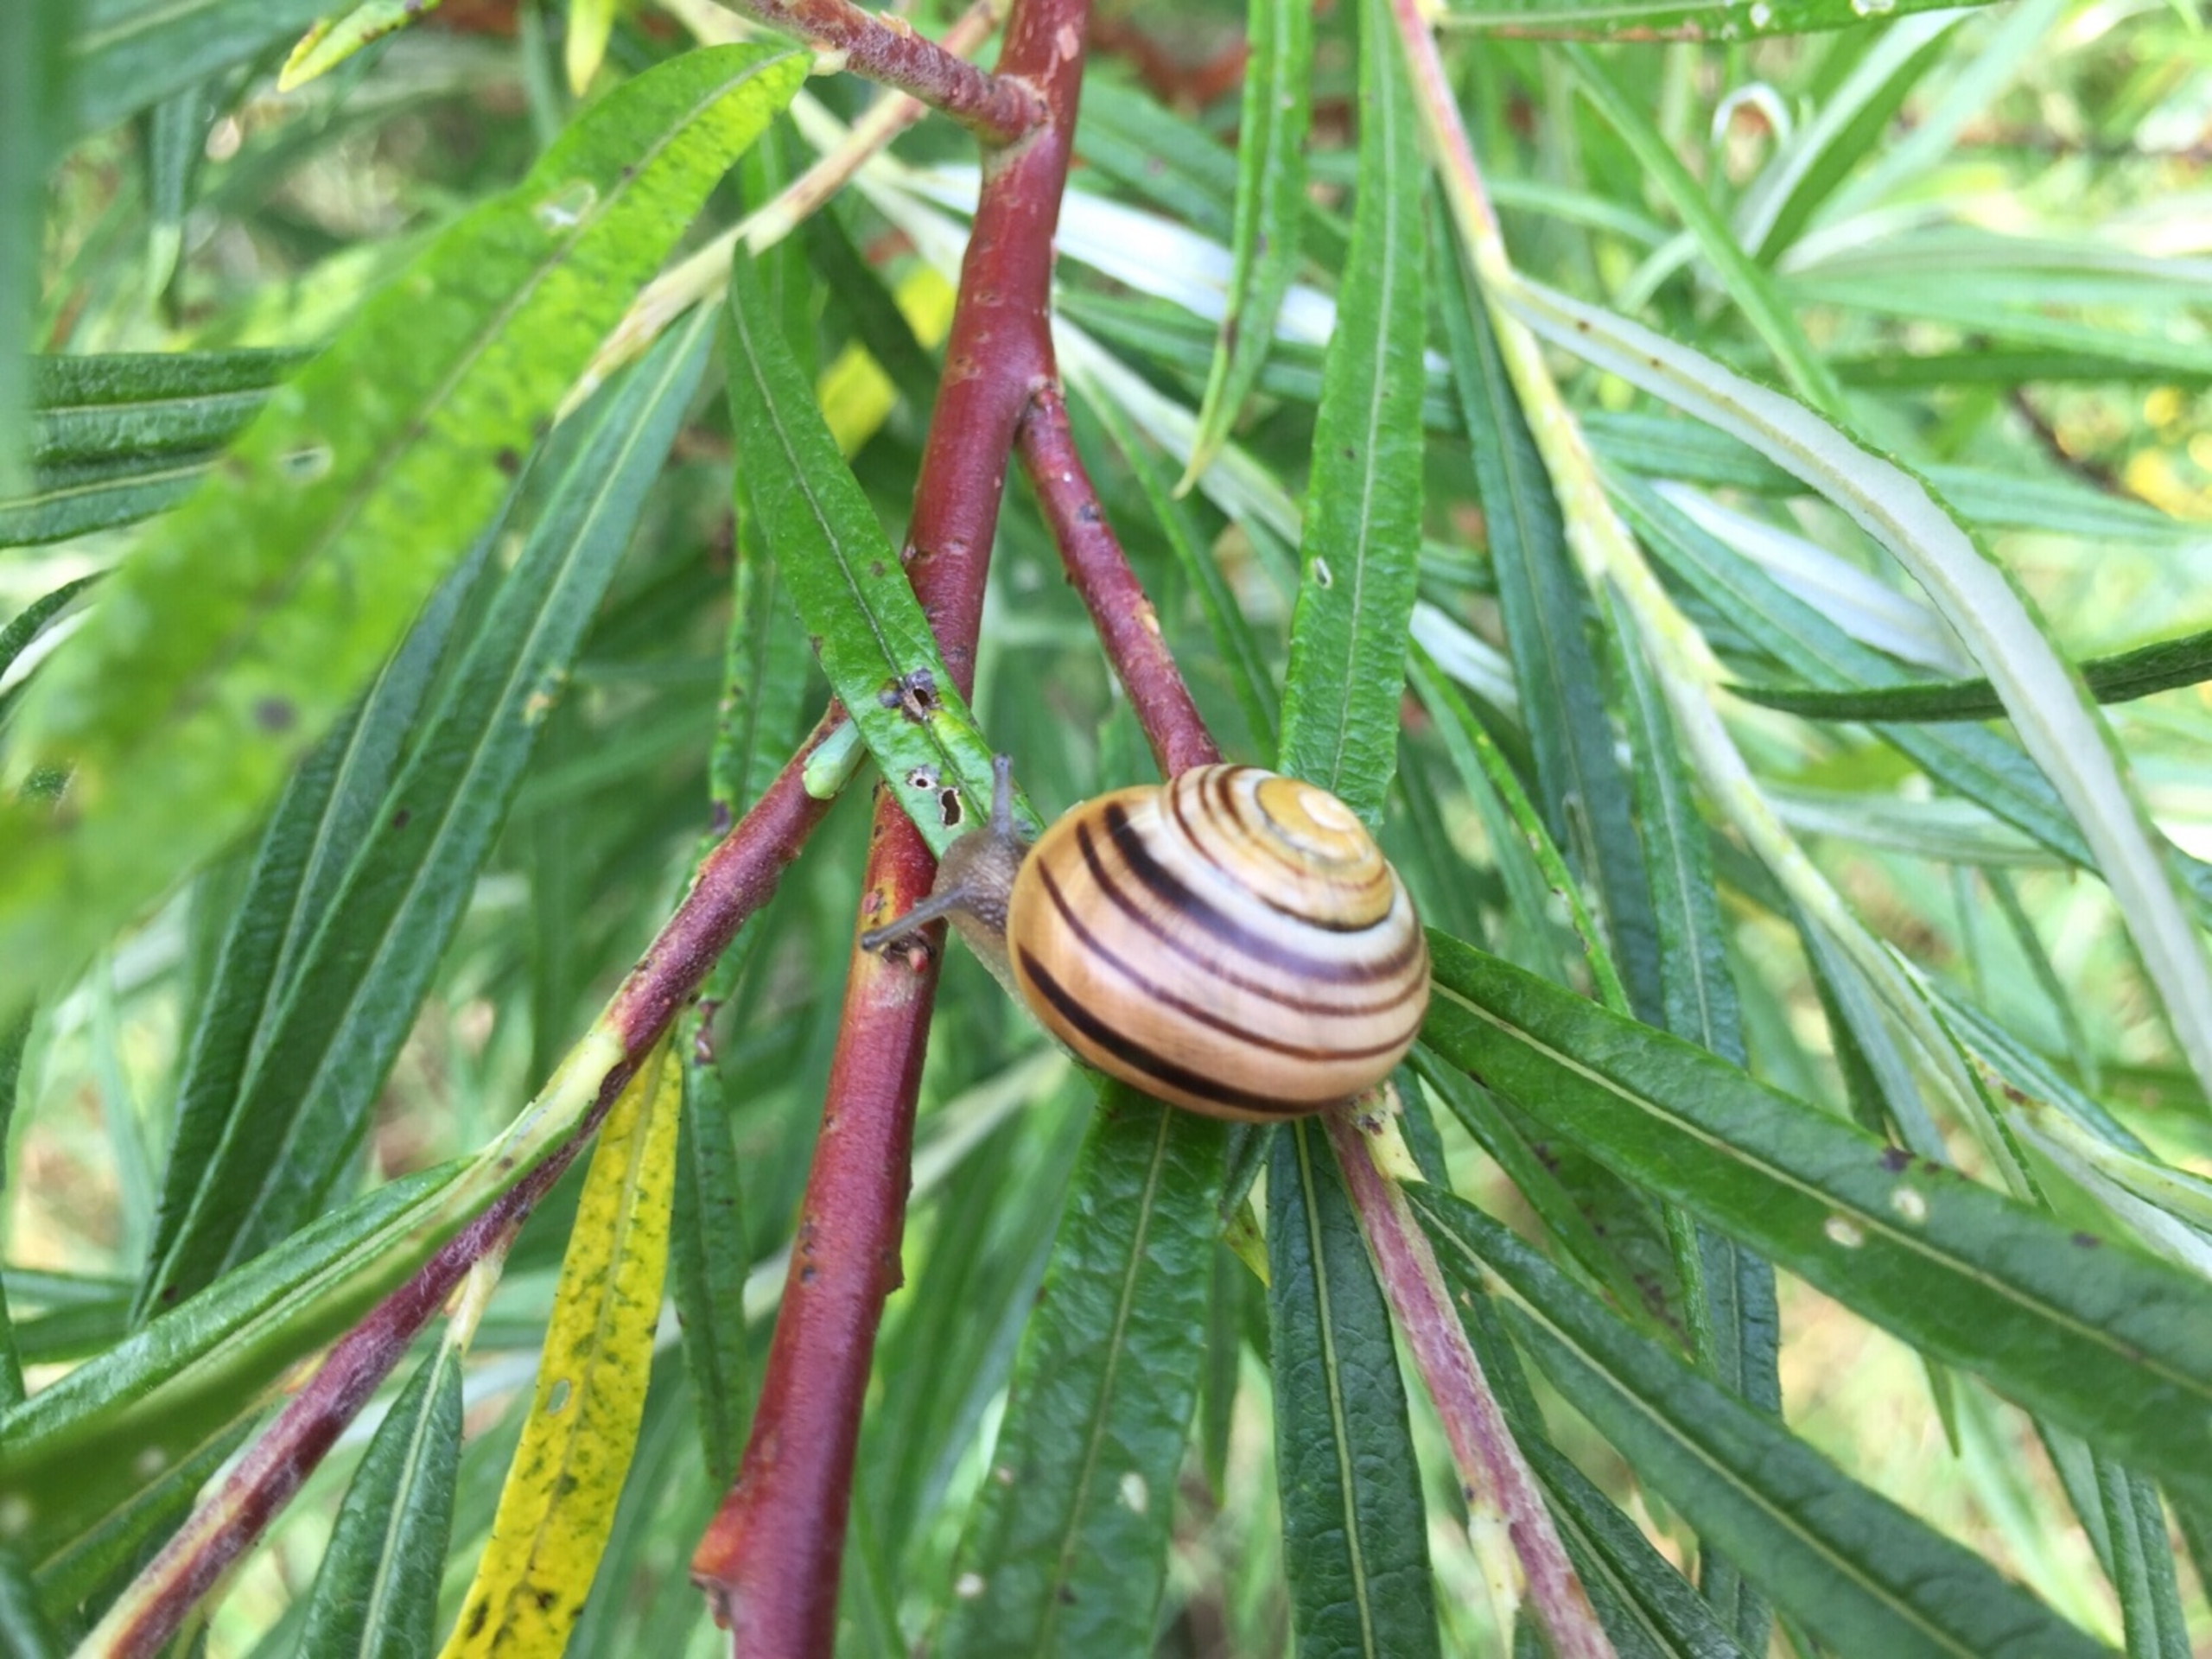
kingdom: Animalia
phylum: Mollusca
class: Gastropoda
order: Stylommatophora
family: Helicidae
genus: Cepaea
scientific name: Cepaea hortensis
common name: Havesnegl
